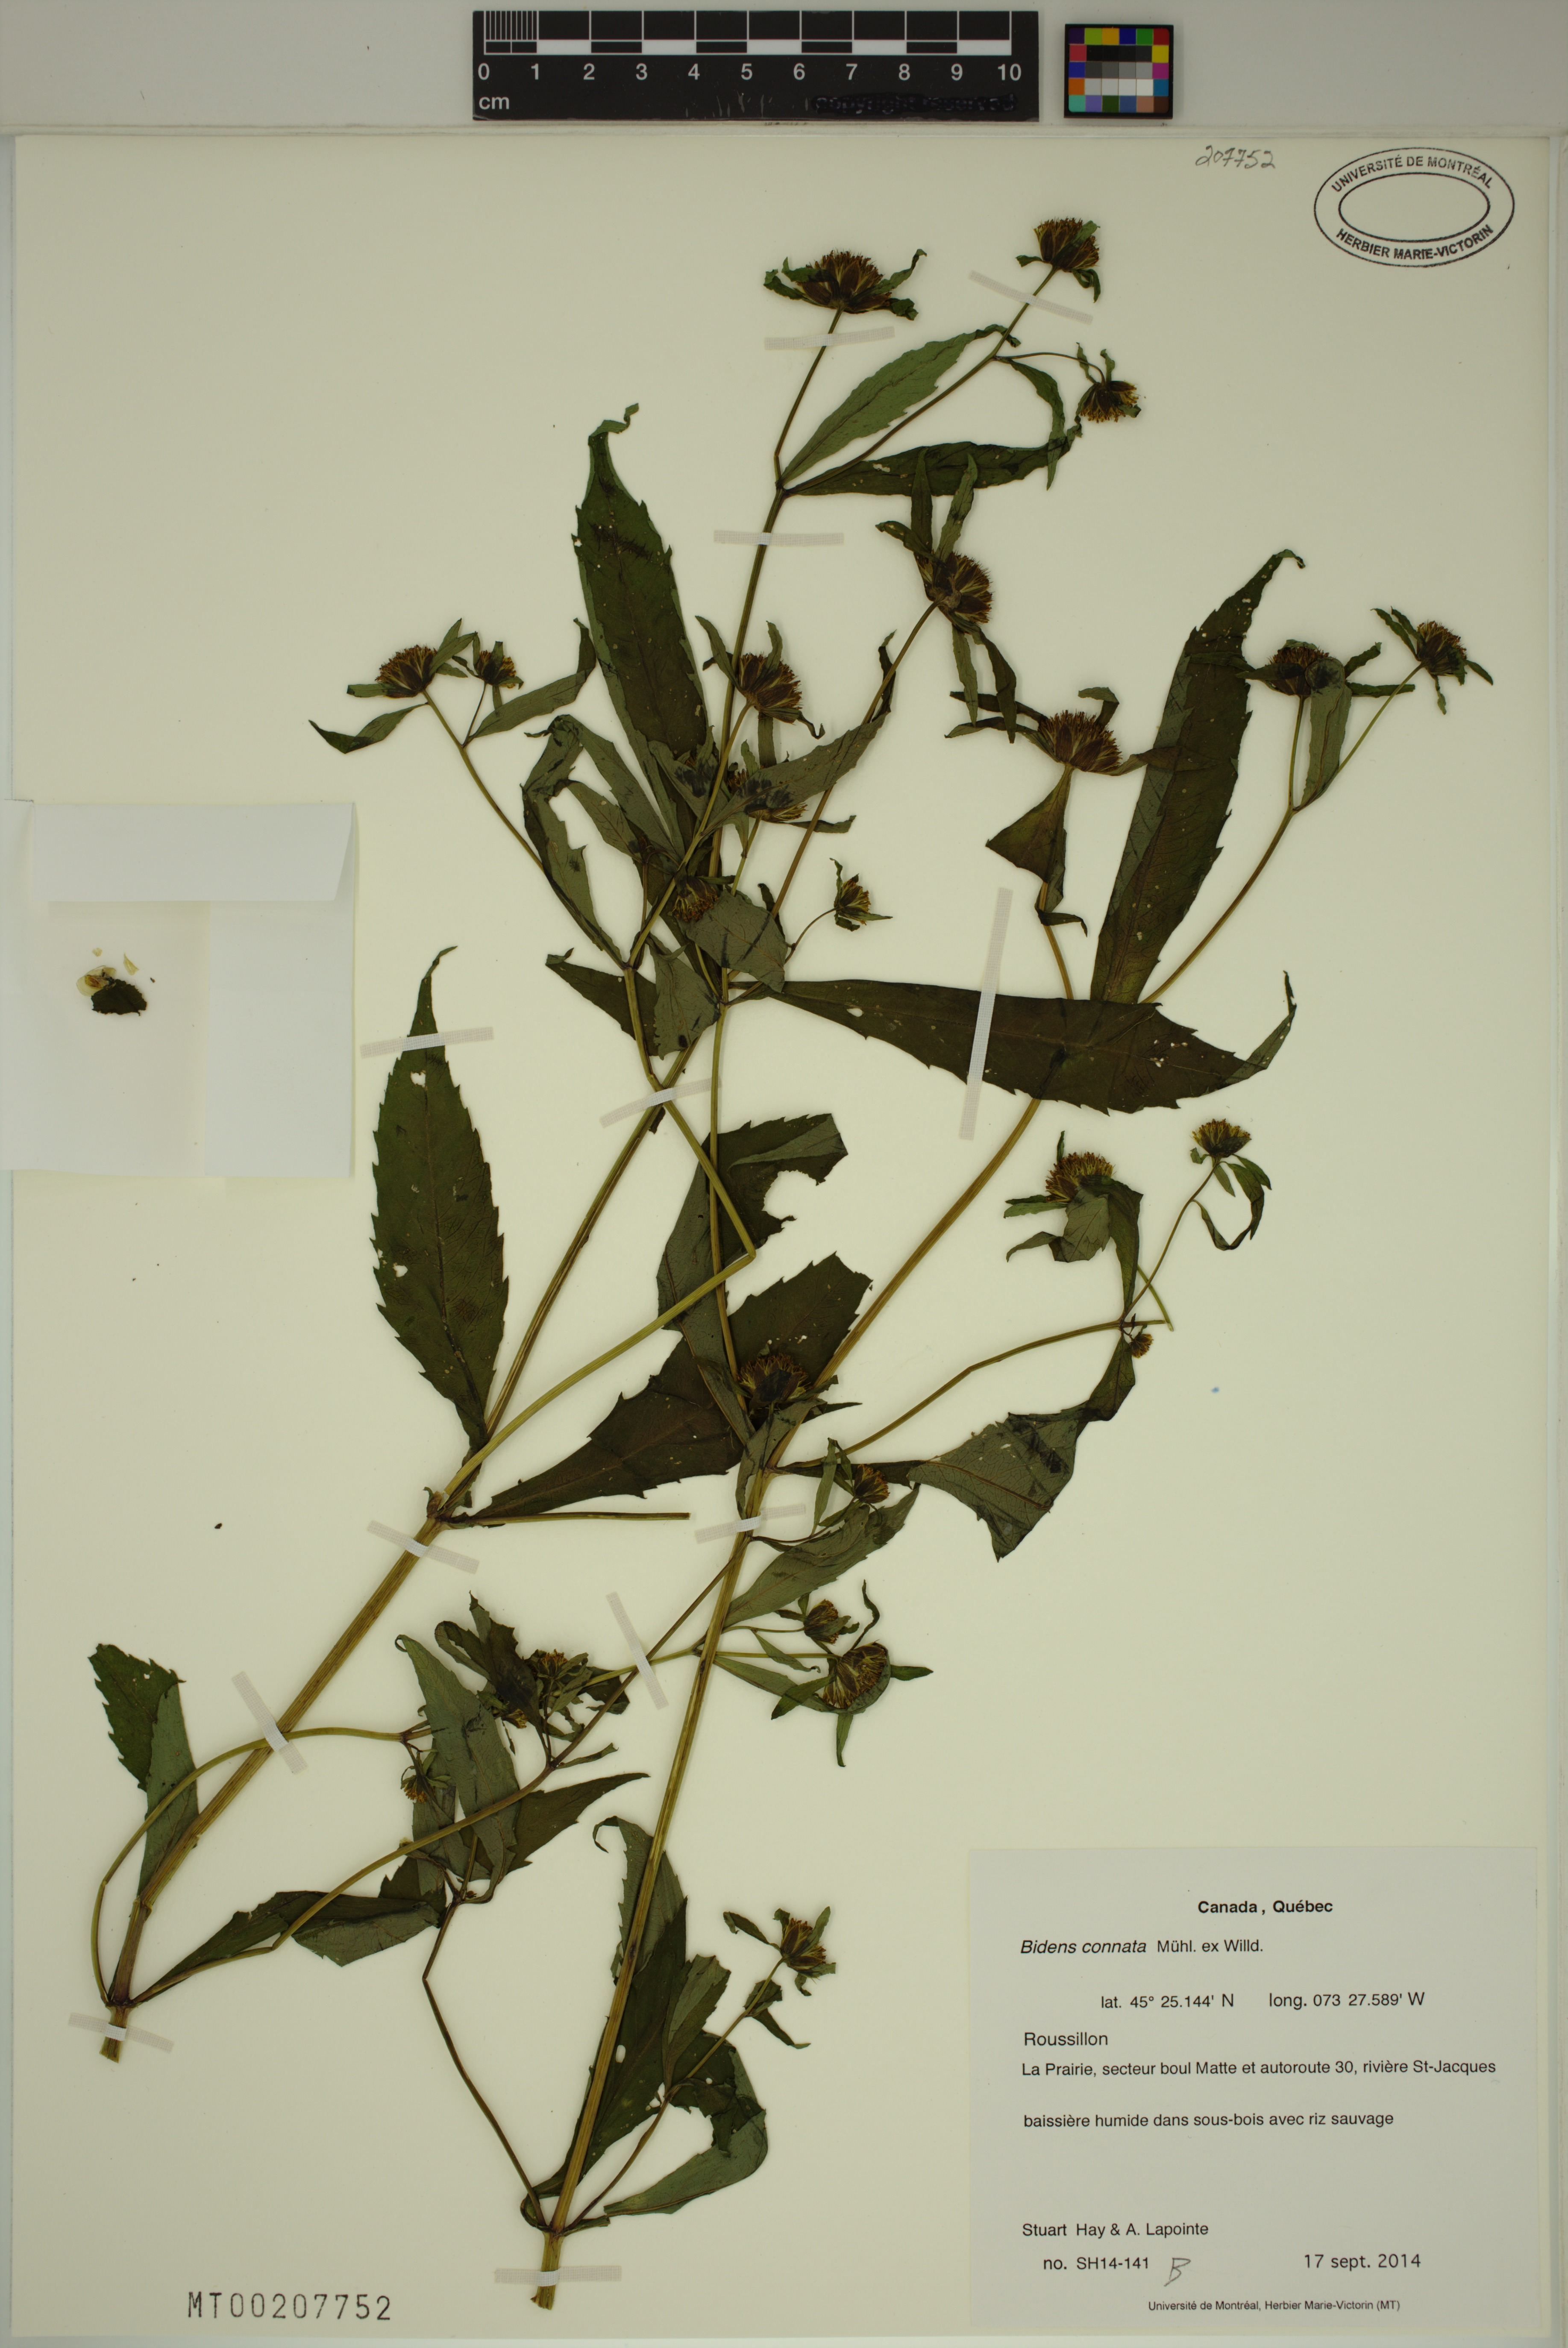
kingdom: Plantae
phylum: Tracheophyta
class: Magnoliopsida
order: Asterales
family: Asteraceae
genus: Bidens
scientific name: Bidens connata
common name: London bur-marigold
